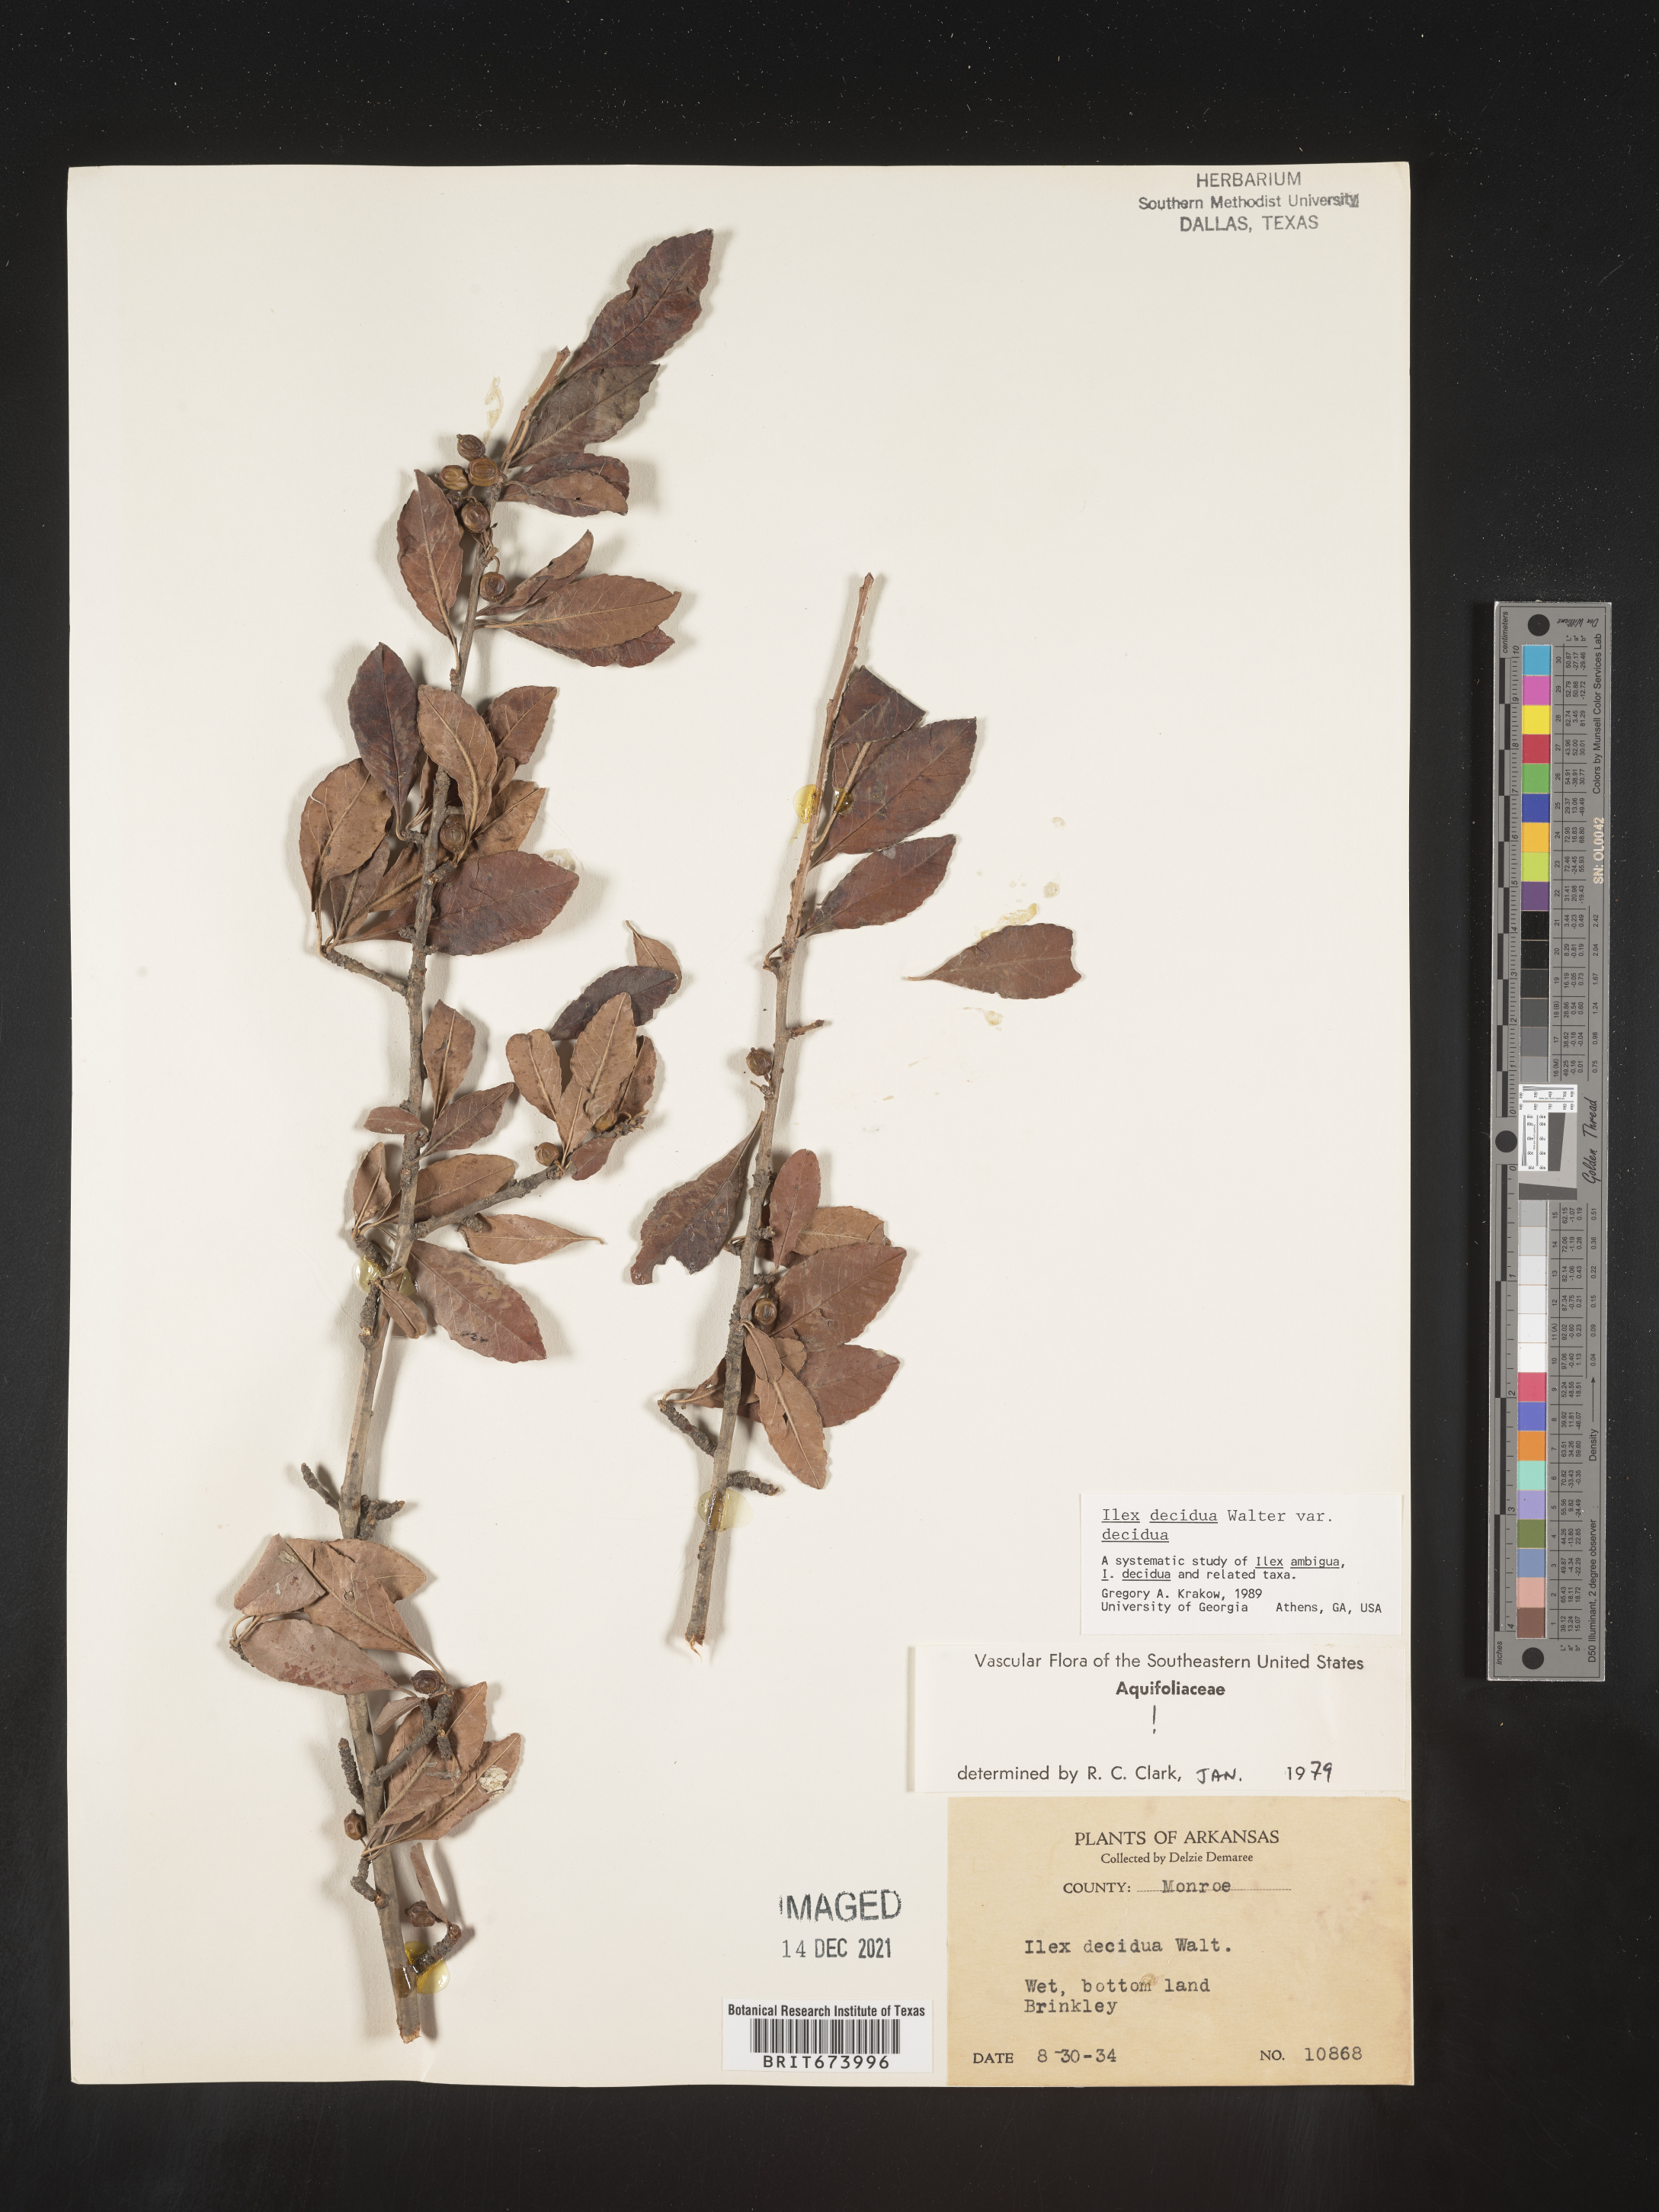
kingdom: Plantae
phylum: Tracheophyta
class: Magnoliopsida
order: Aquifoliales
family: Aquifoliaceae
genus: Ilex
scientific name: Ilex decidua
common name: Possum-haw
